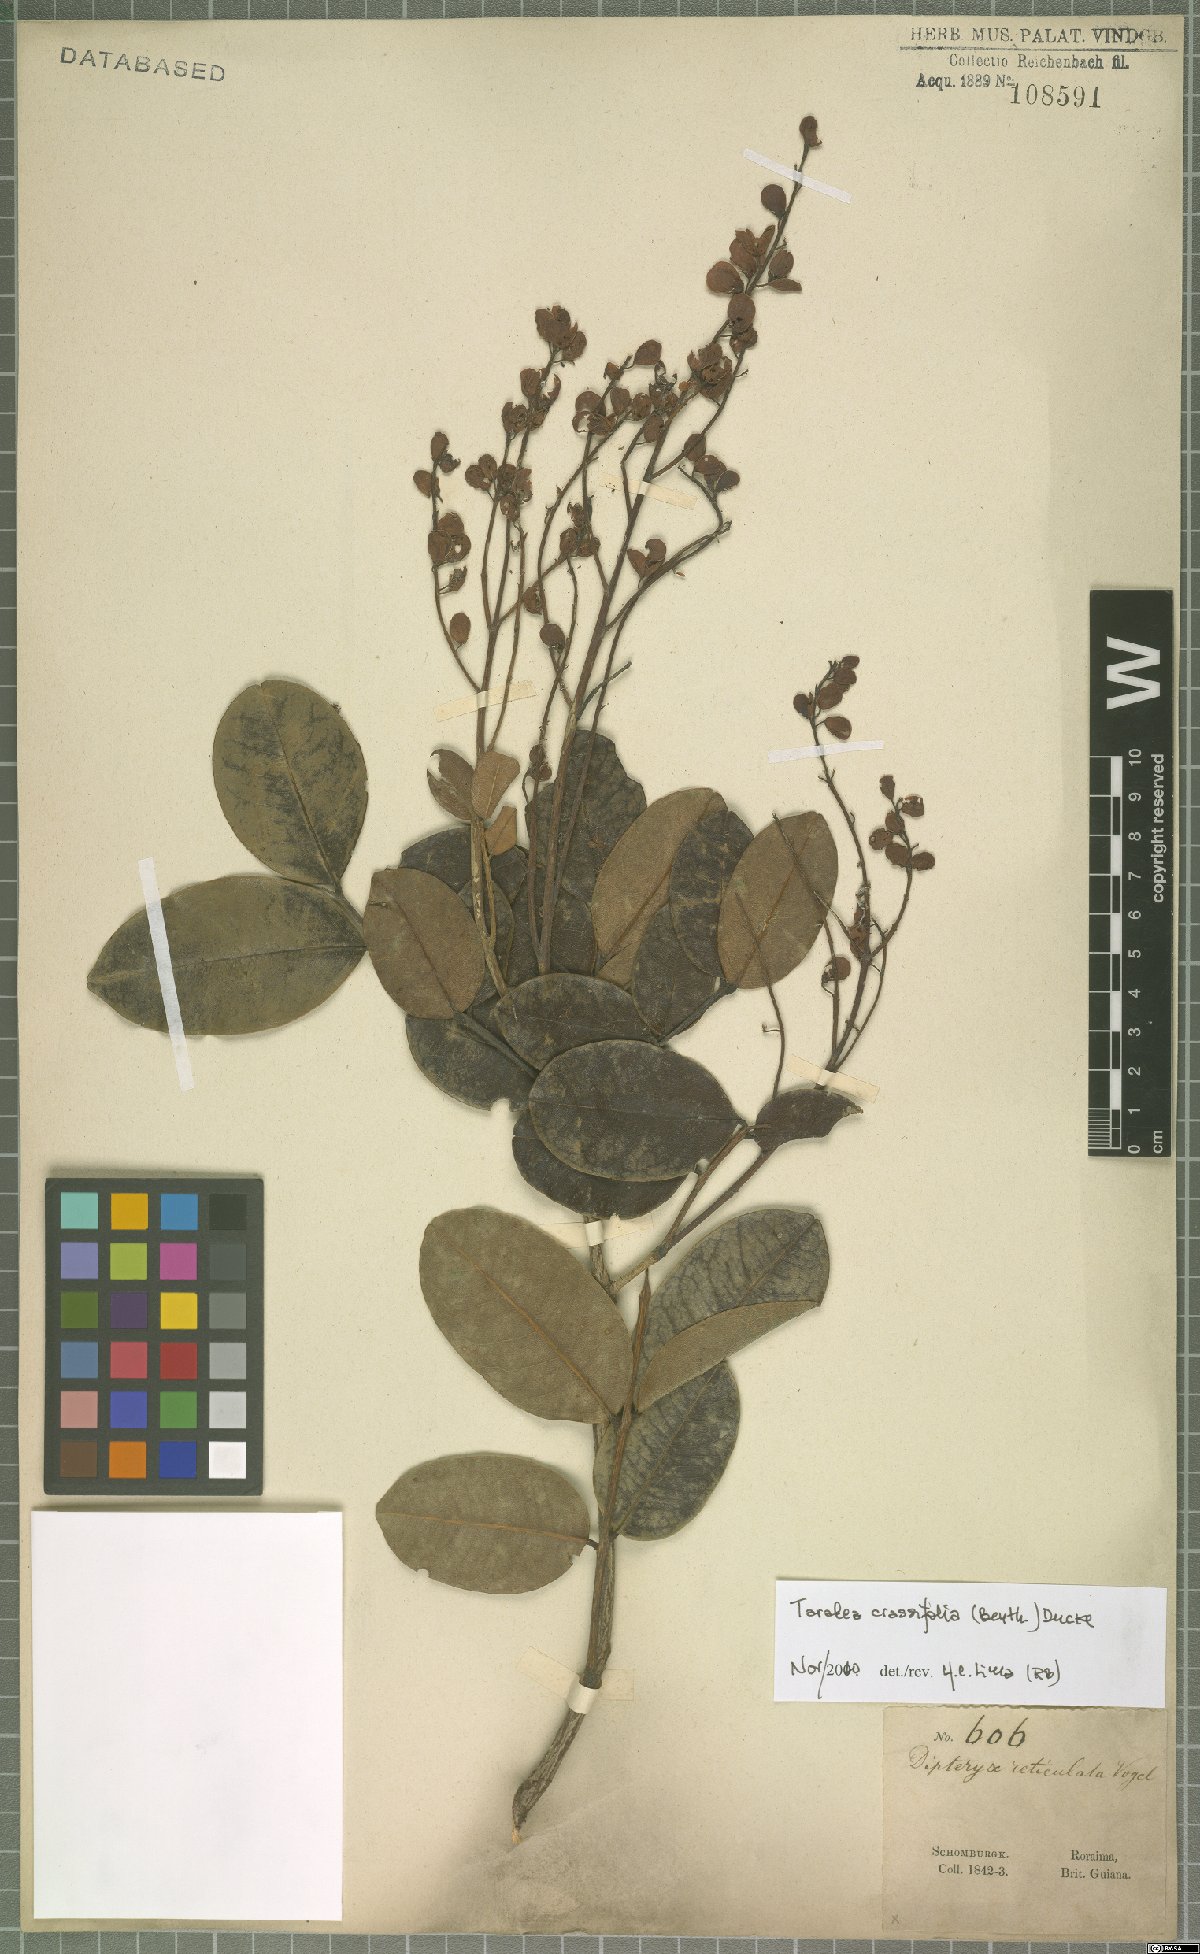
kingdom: Plantae
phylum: Tracheophyta
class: Magnoliopsida
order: Fabales
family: Fabaceae
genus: Taralea
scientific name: Taralea crassifolia
